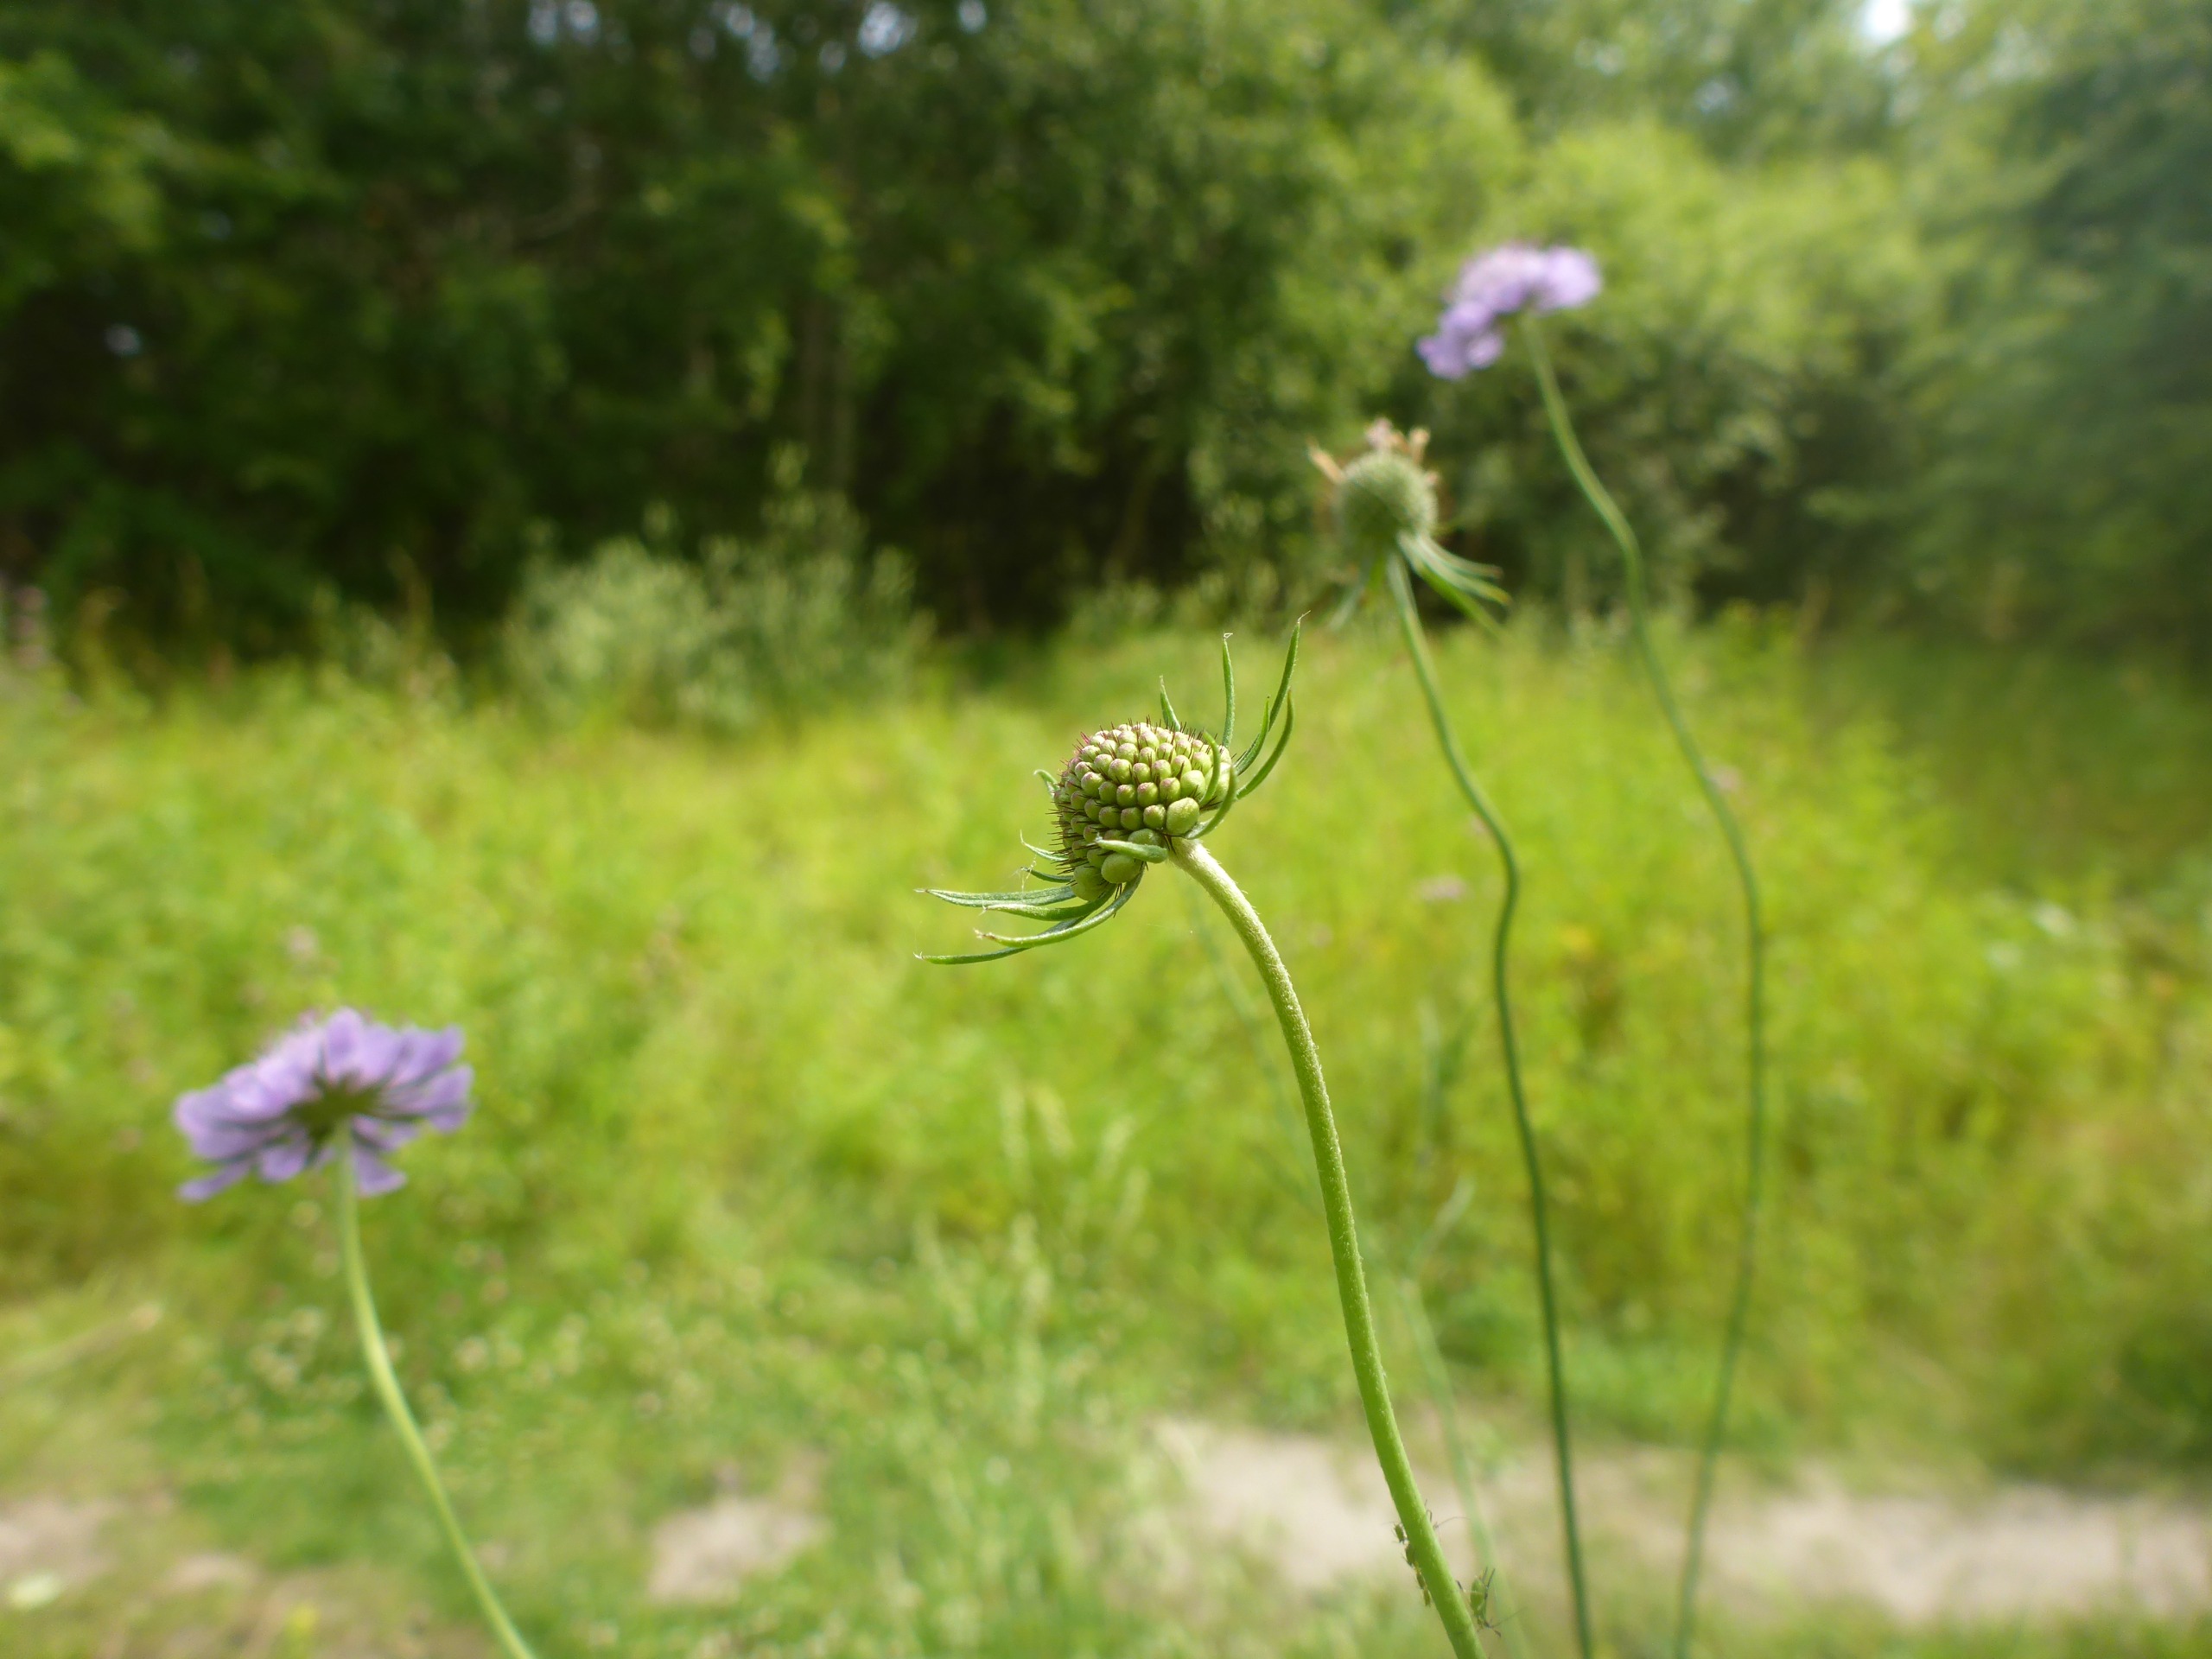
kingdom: Plantae
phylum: Tracheophyta
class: Magnoliopsida
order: Dipsacales
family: Caprifoliaceae
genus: Scabiosa
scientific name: Scabiosa columbaria
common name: Due-skabiose
